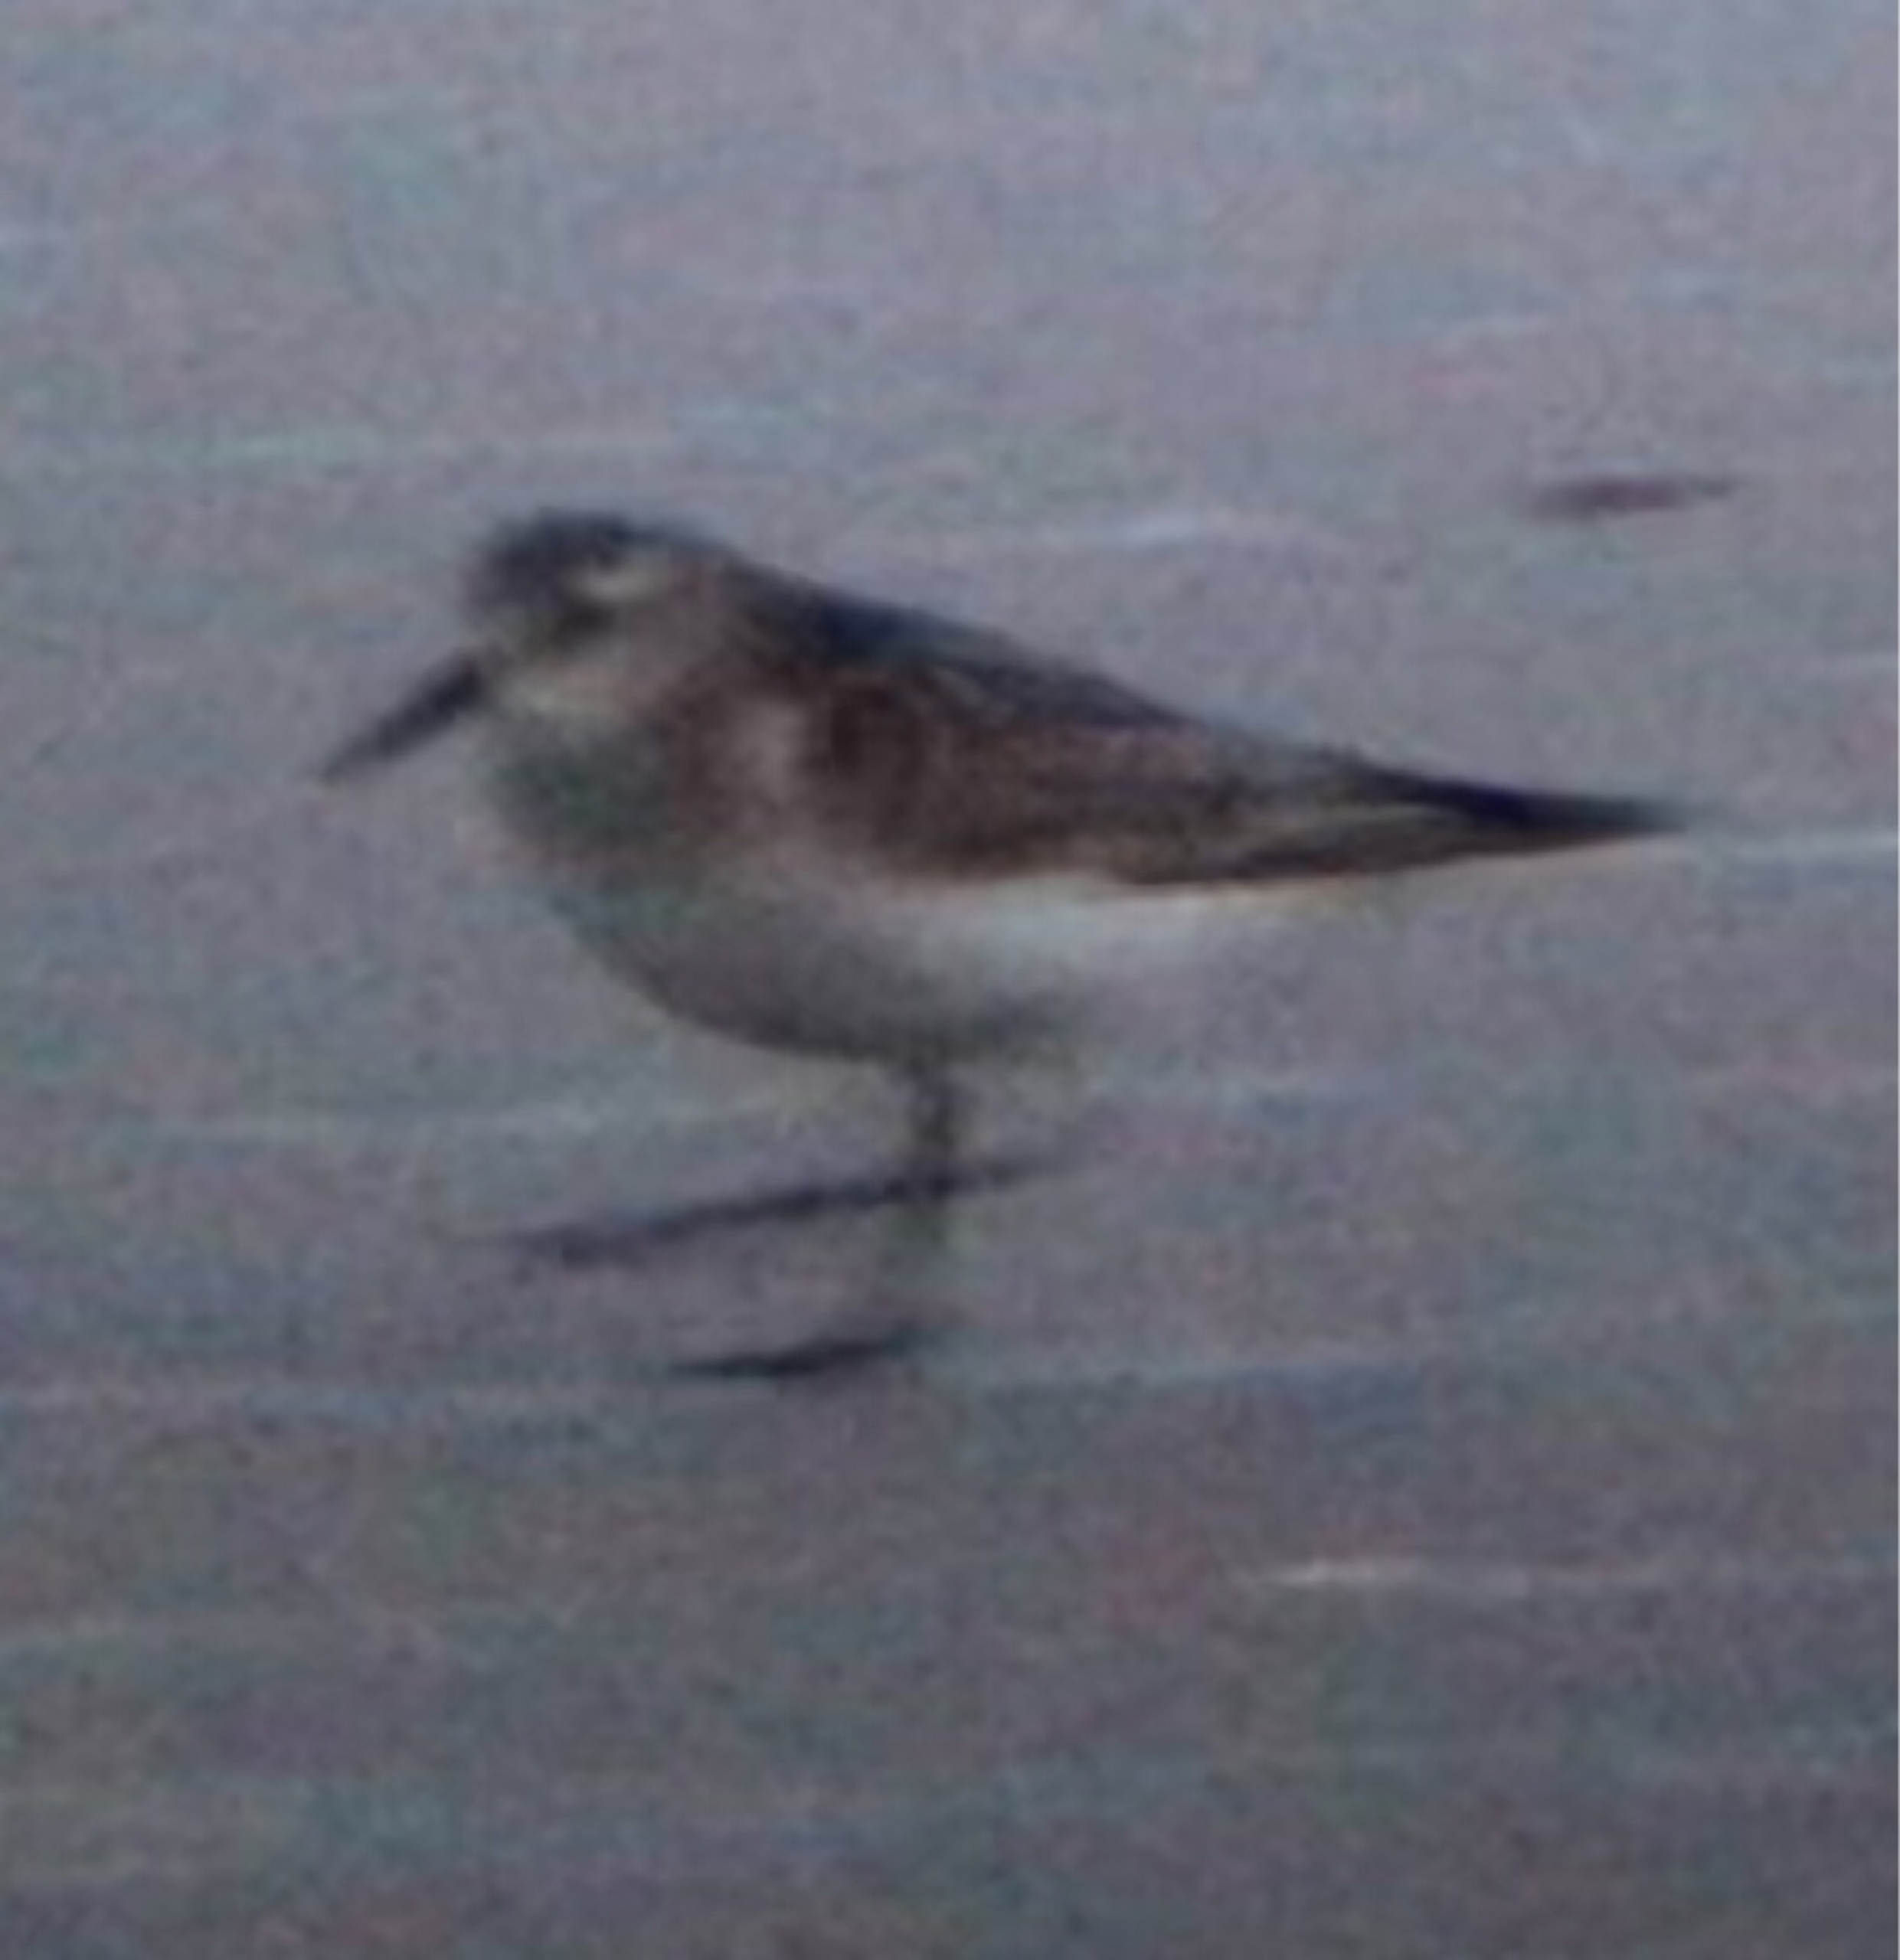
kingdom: Animalia
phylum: Chordata
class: Aves
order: Charadriiformes
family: Scolopacidae
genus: Calidris
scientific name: Calidris bairdii
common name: Bairdsryle
